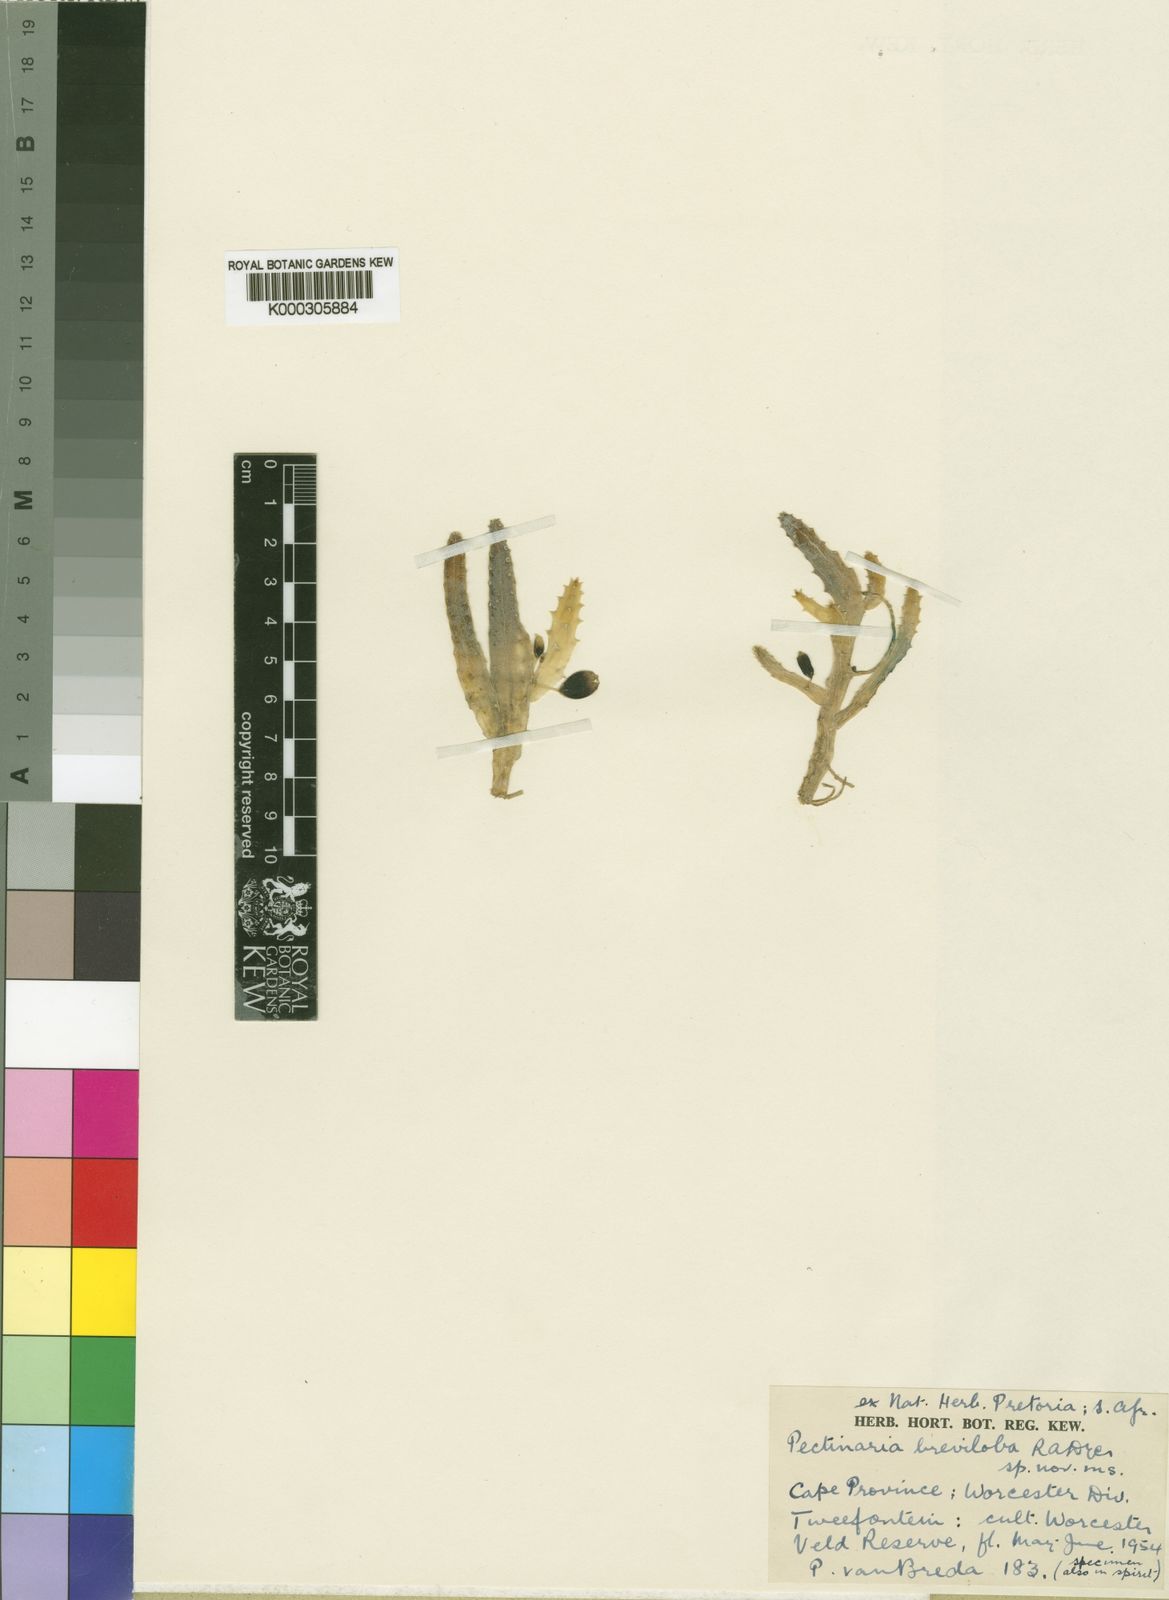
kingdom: Plantae
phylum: Tracheophyta
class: Magnoliopsida
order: Gentianales
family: Apocynaceae
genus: Ceropegia
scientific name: Ceropegia brevilobulata
